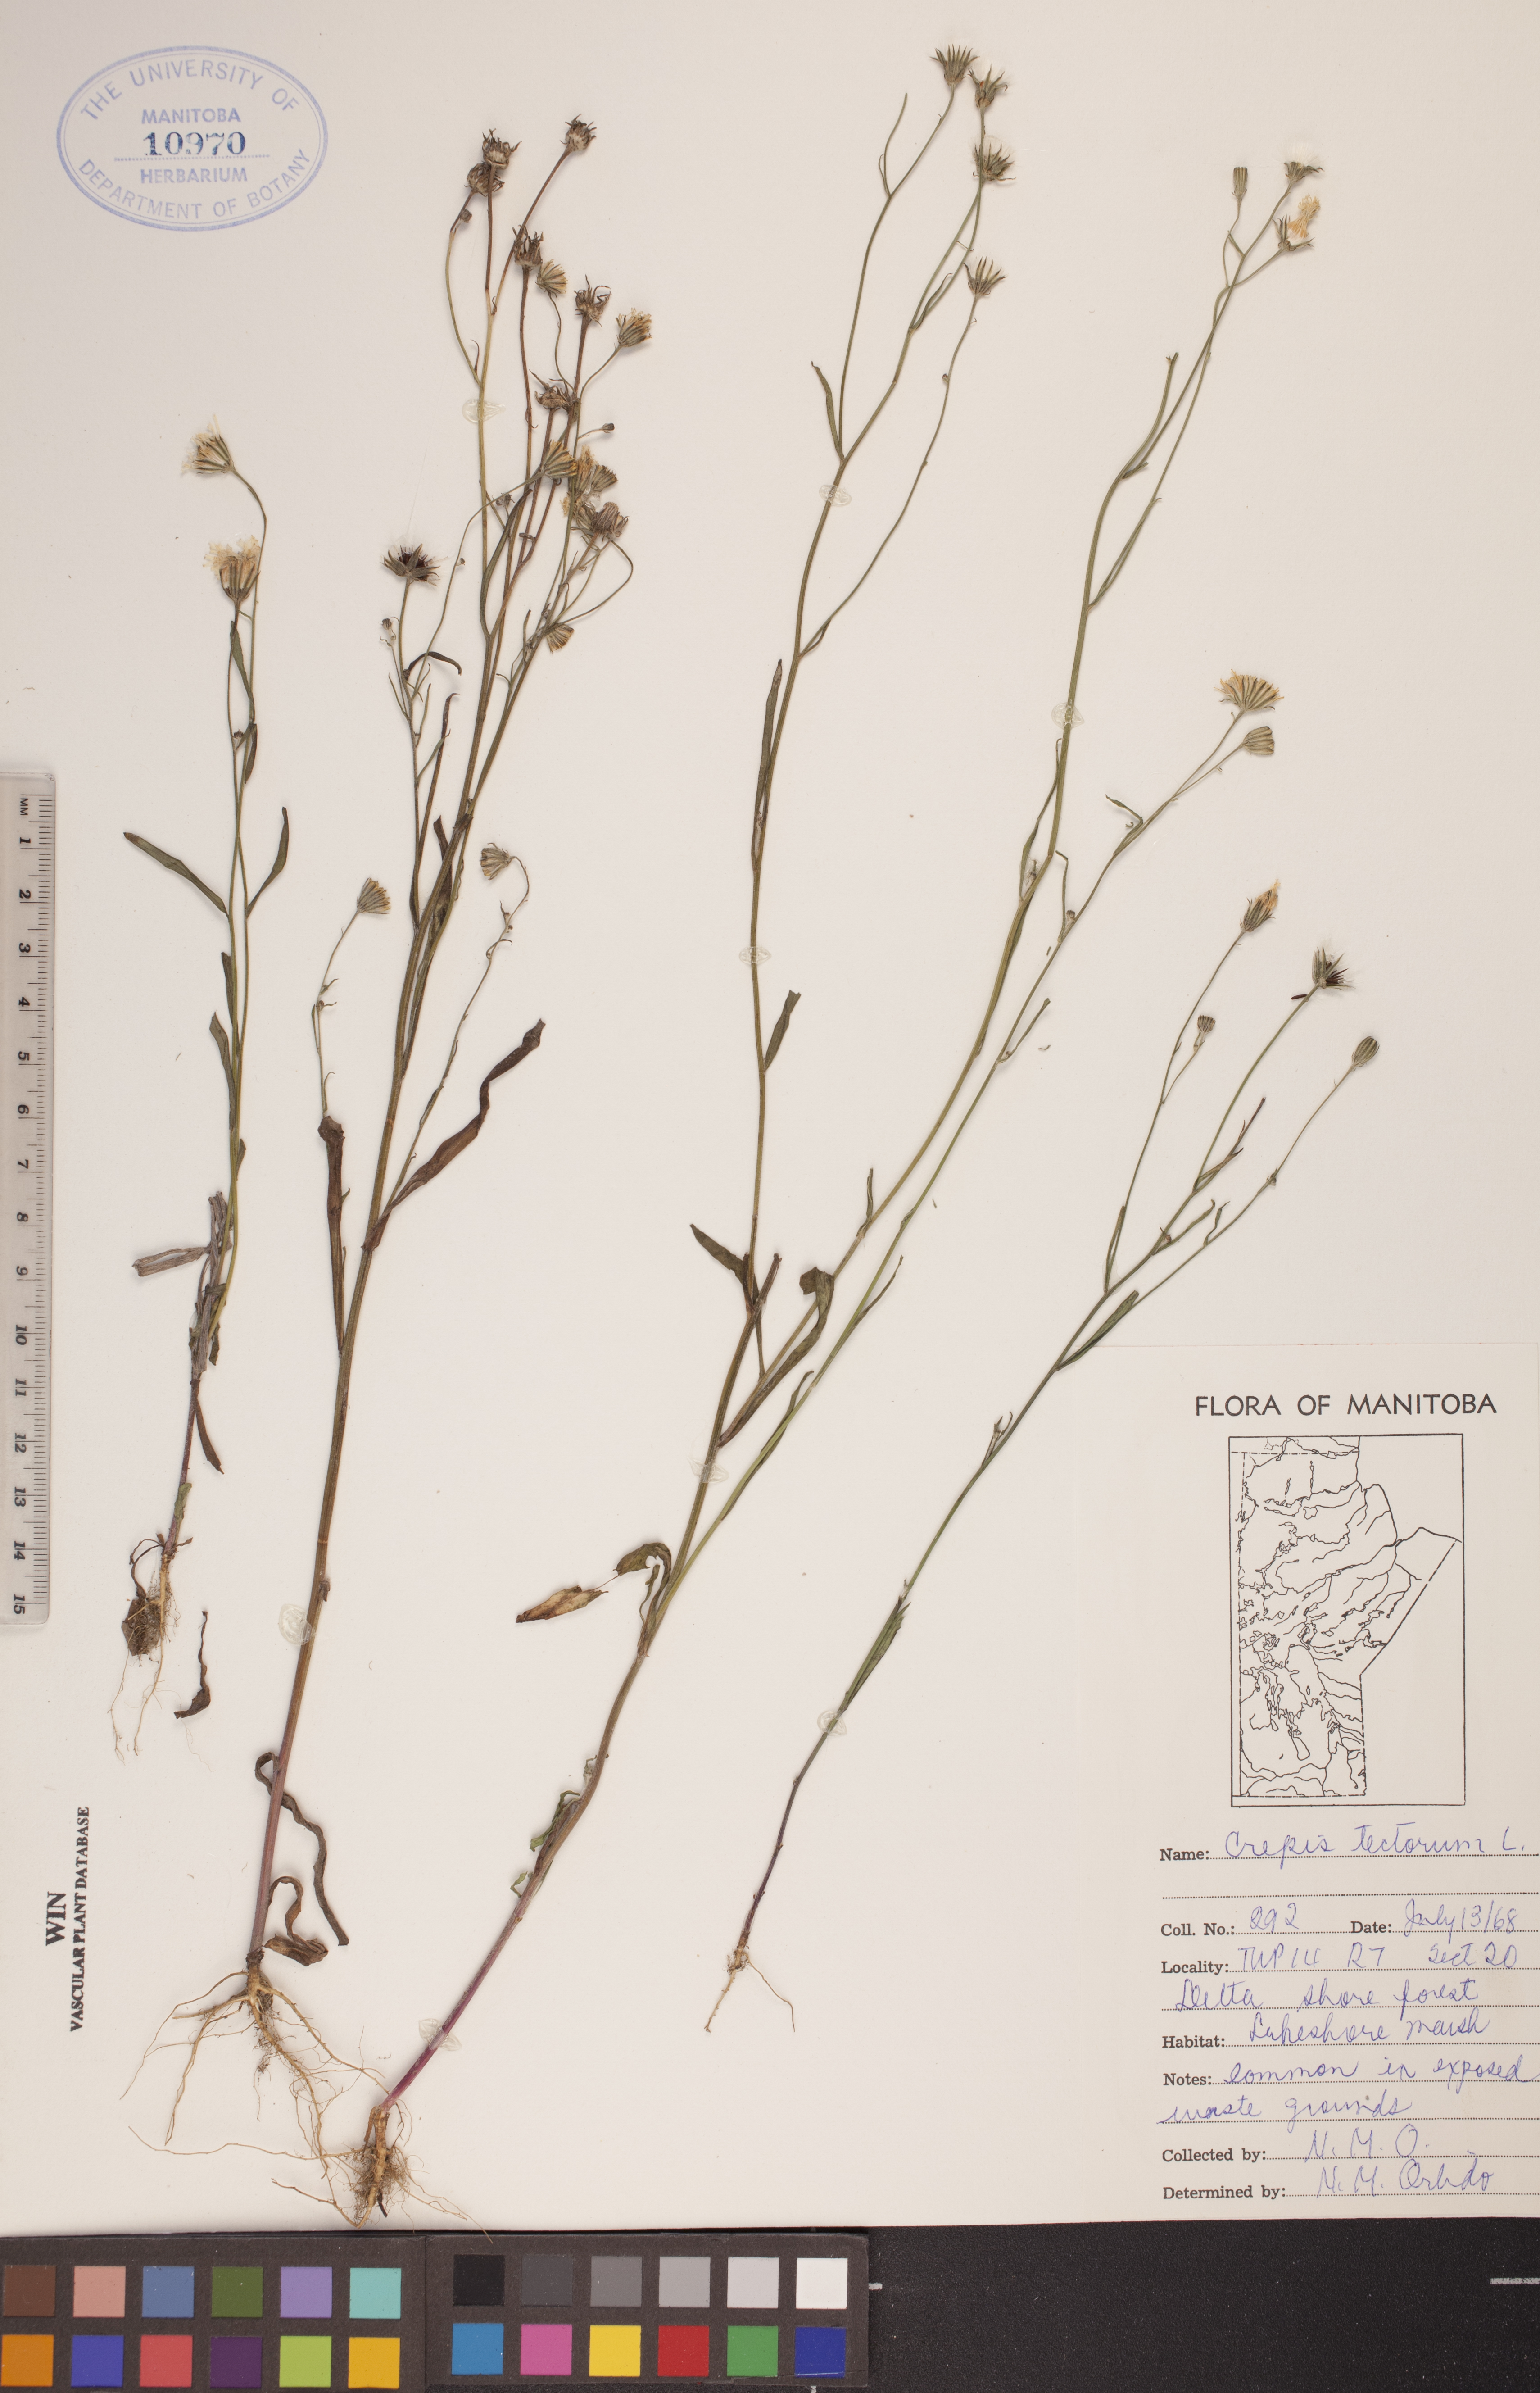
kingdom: Plantae
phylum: Tracheophyta
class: Magnoliopsida
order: Asterales
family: Asteraceae
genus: Crepis
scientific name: Crepis tectorum
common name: Narrow-leaved hawk's-beard
